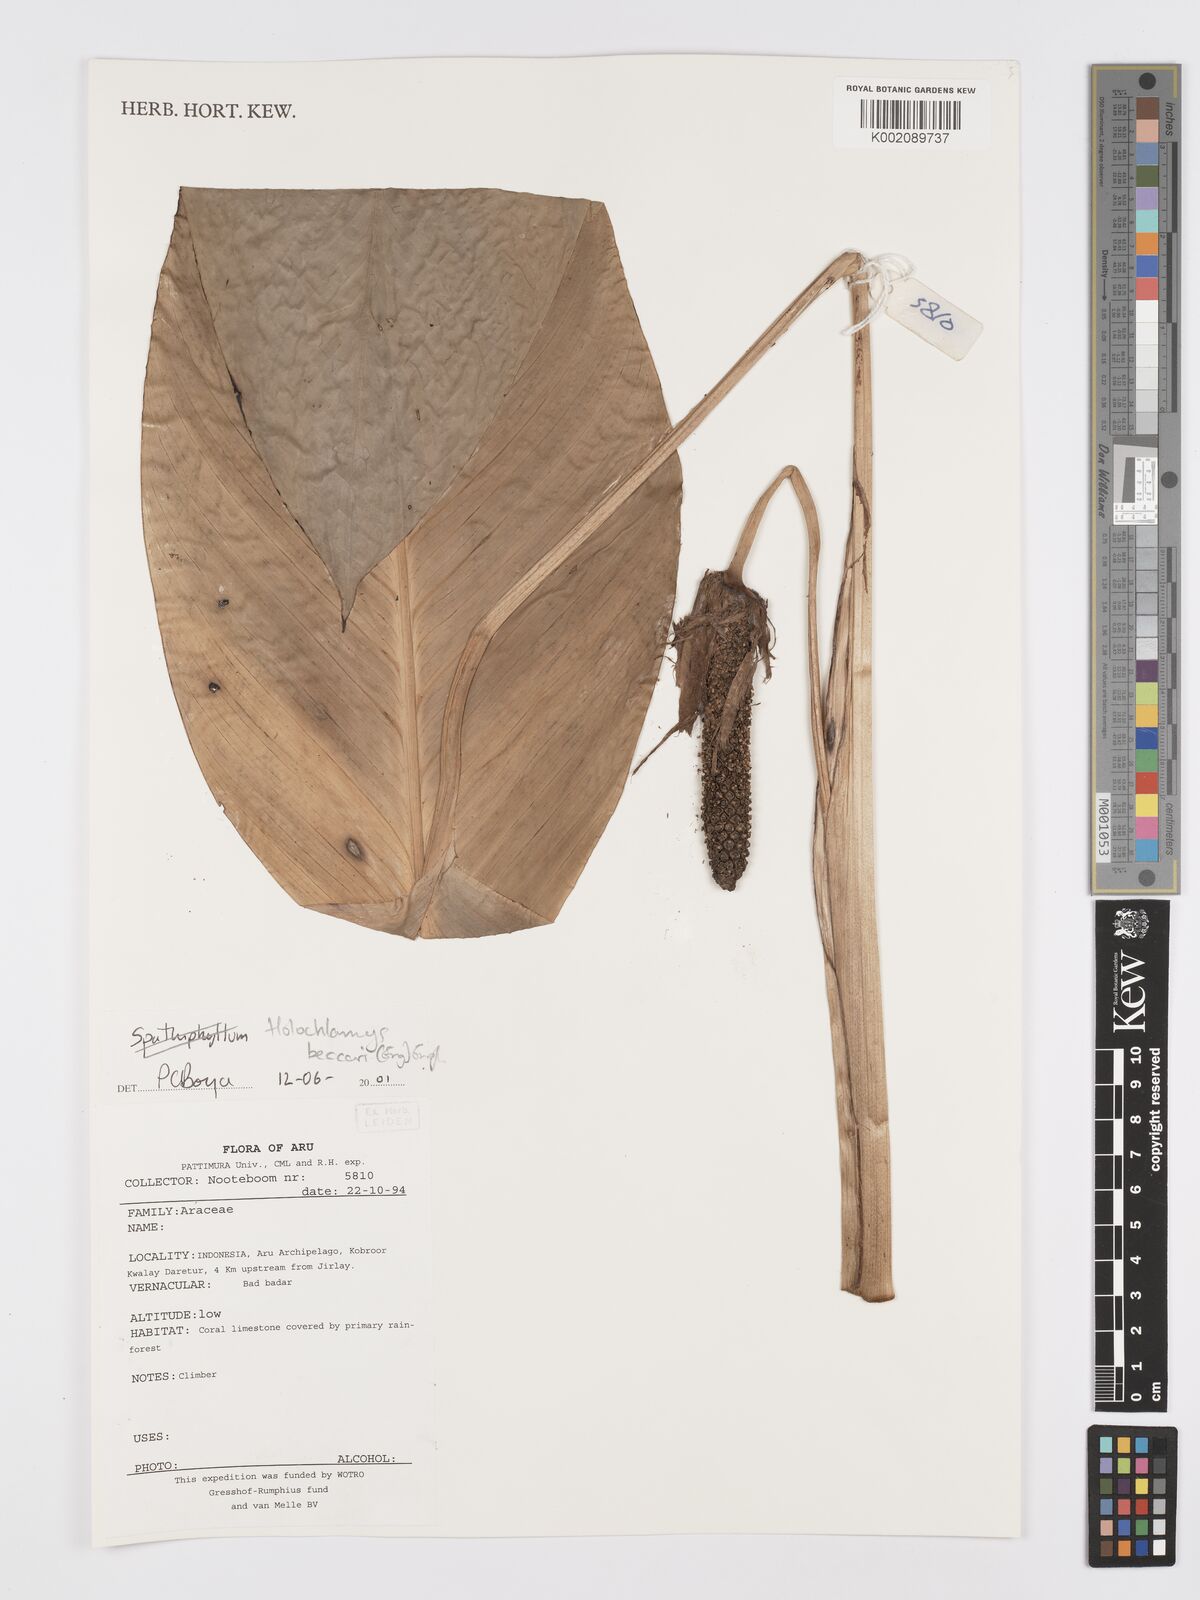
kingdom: Plantae
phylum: Tracheophyta
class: Liliopsida
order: Alismatales
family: Araceae
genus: Holochlamys
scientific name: Holochlamys beccarii
